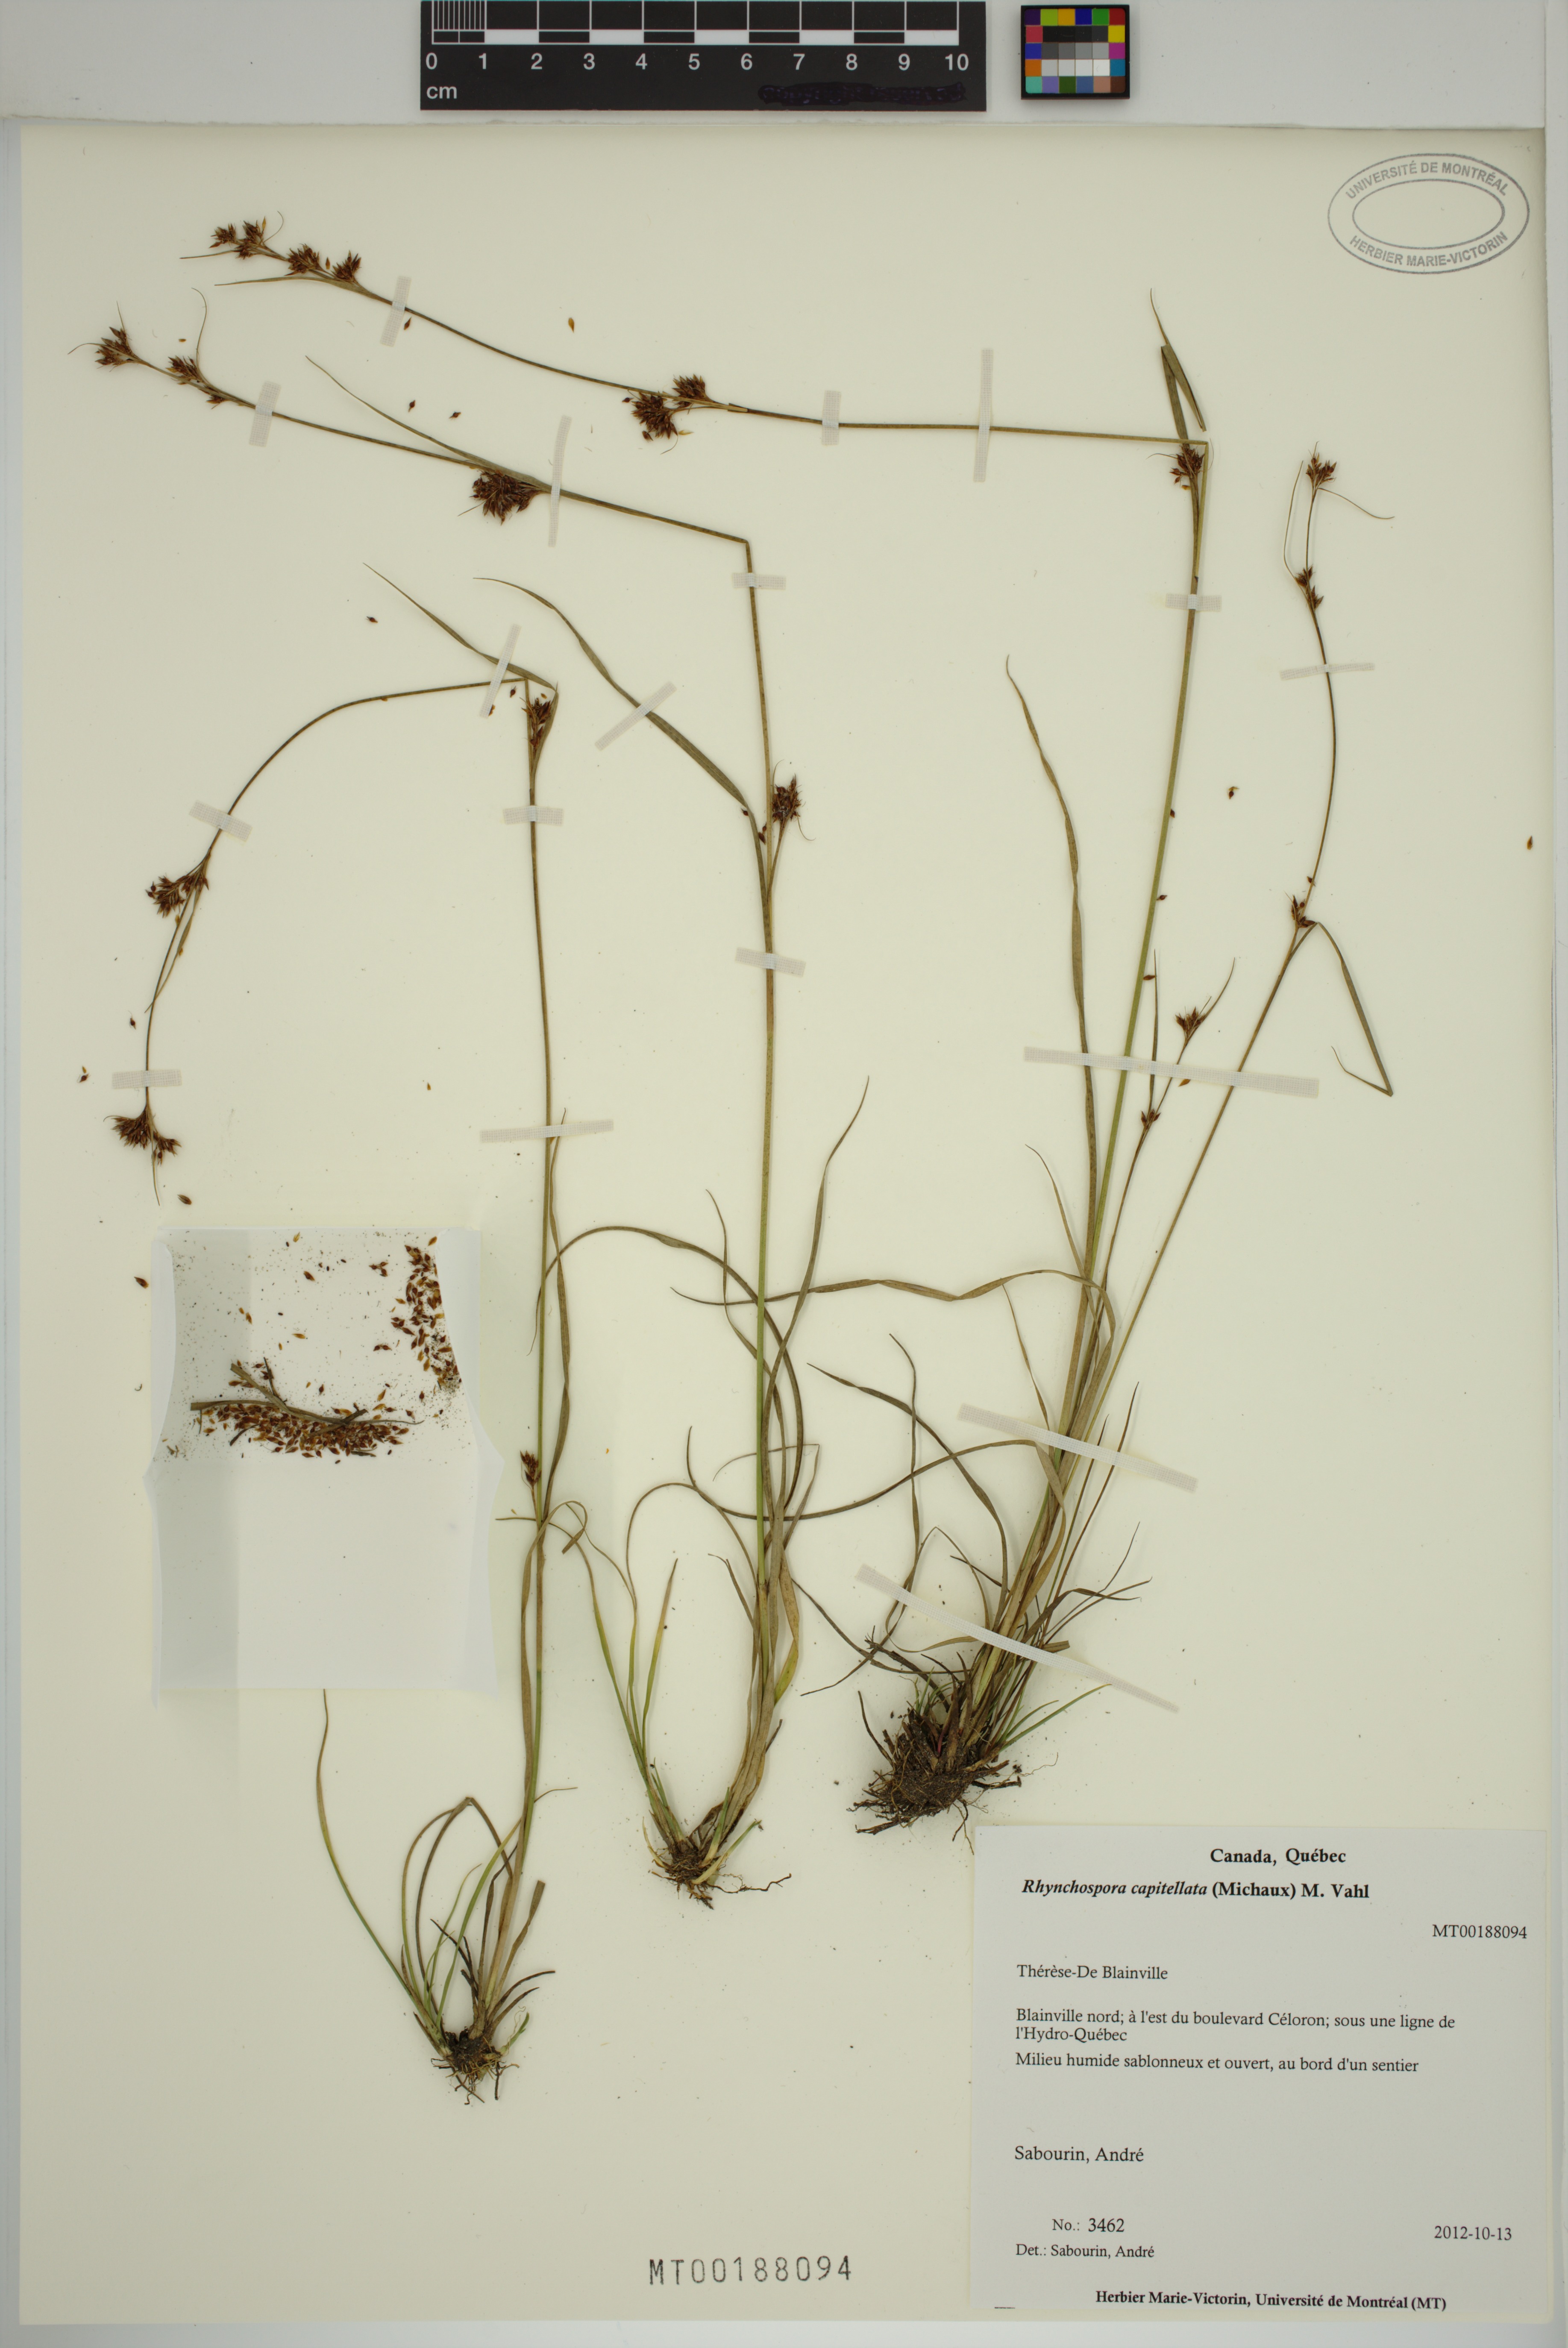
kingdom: Plantae
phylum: Tracheophyta
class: Liliopsida
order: Poales
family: Cyperaceae
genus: Rhynchospora
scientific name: Rhynchospora capitellata
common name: Brownish beaksedge
